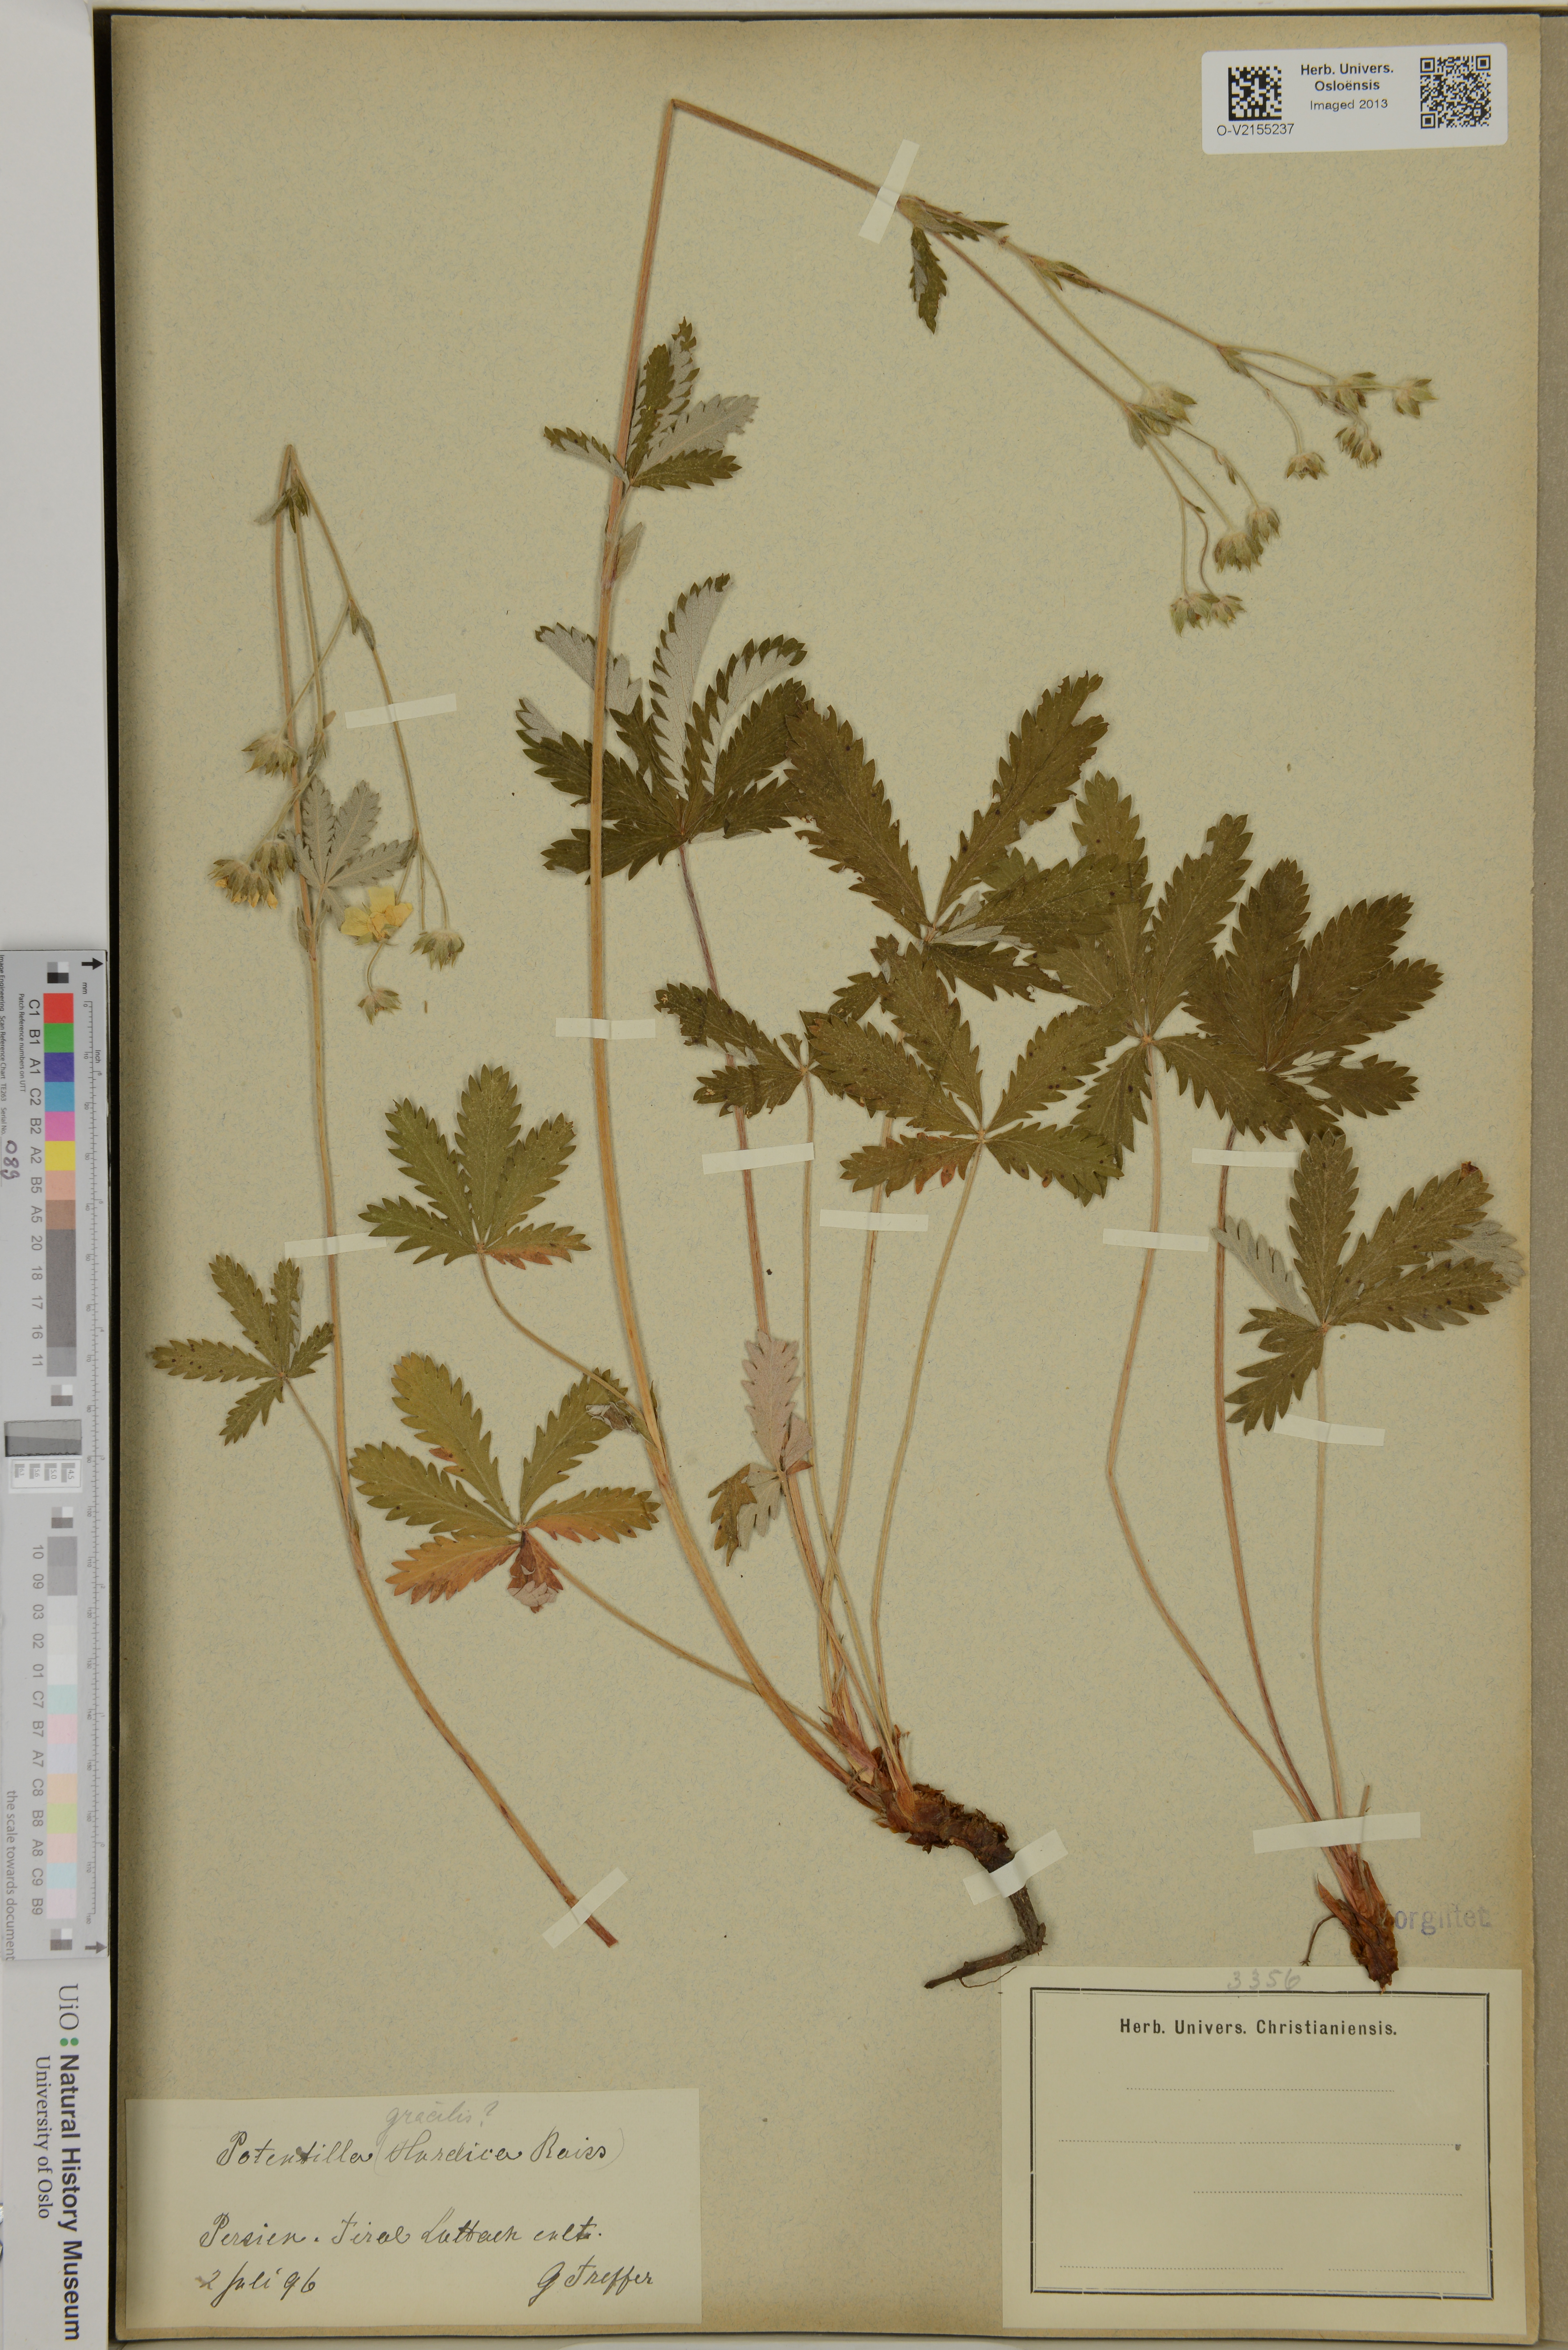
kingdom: Plantae
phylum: Tracheophyta
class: Magnoliopsida
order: Rosales
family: Rosaceae
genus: Potentilla
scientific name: Potentilla gracilis
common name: Graceful cinquefoil
